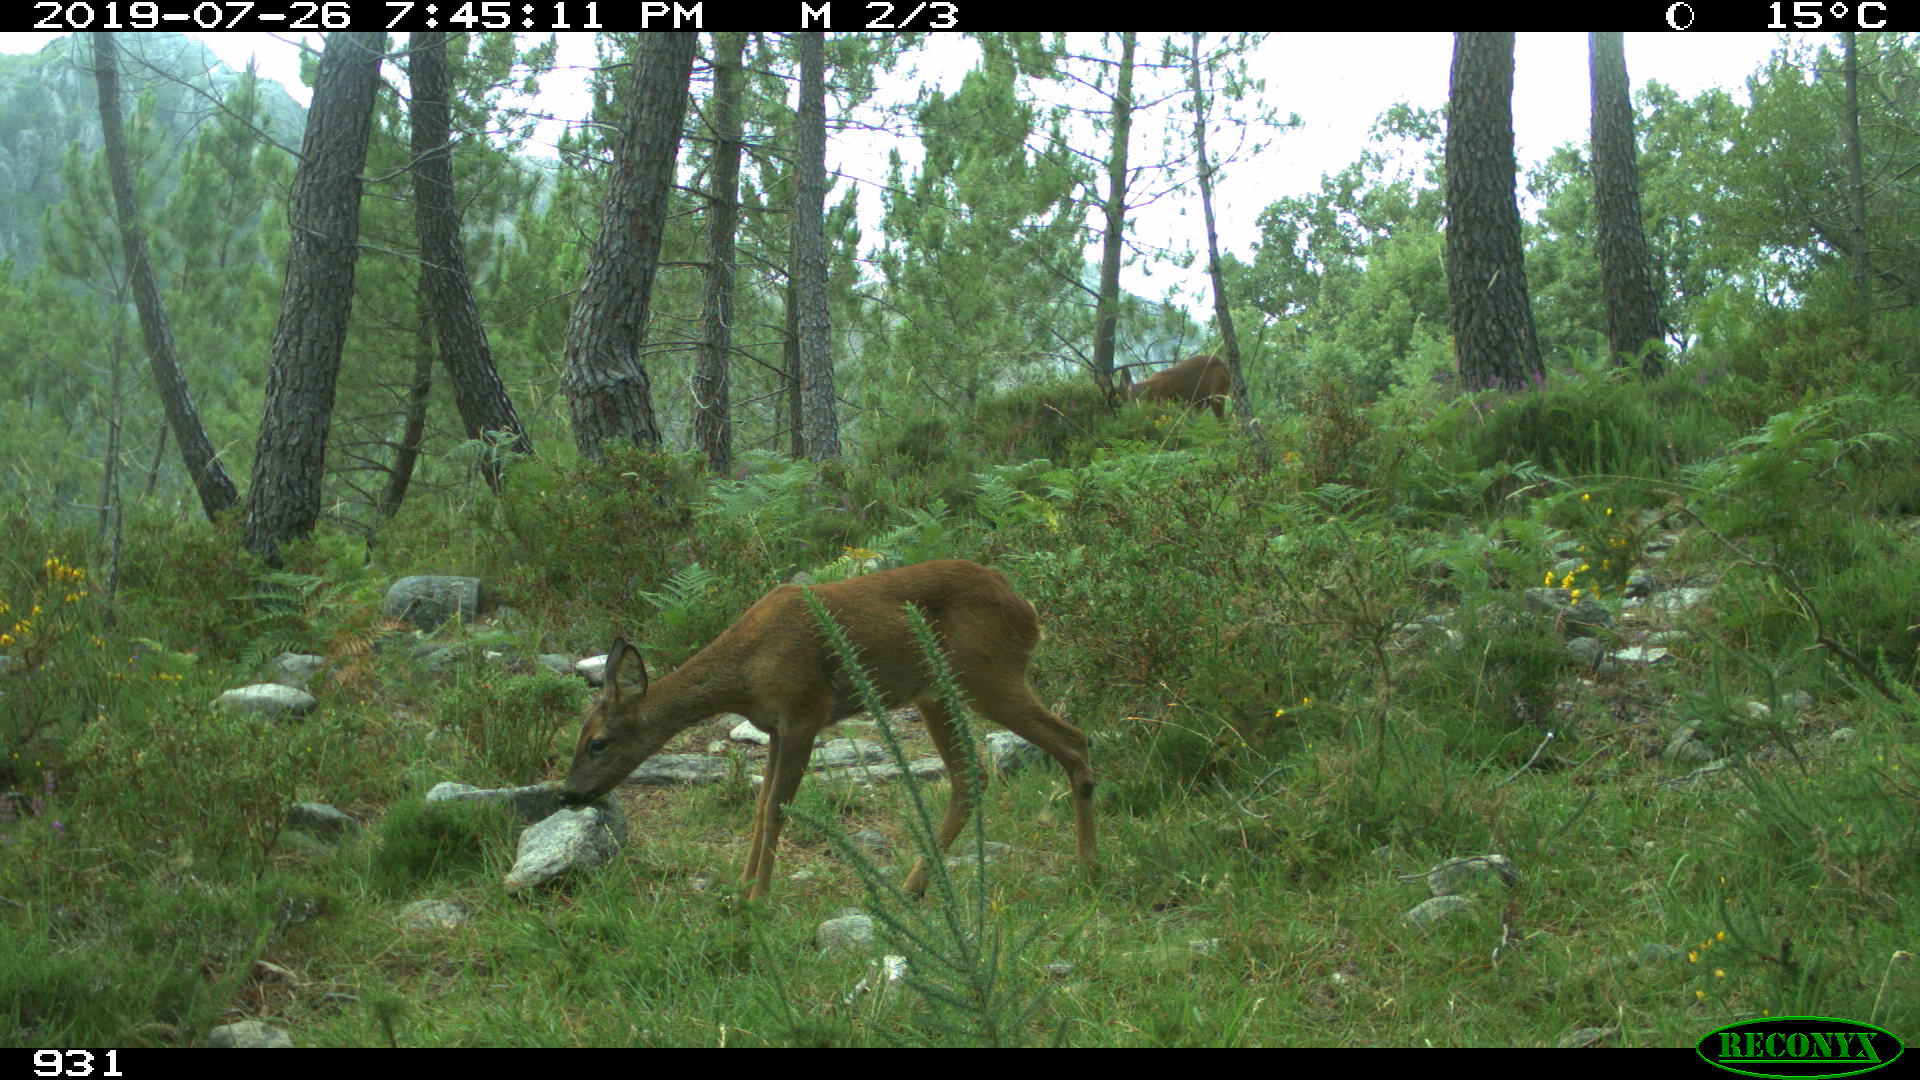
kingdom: Animalia
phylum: Chordata
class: Mammalia
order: Artiodactyla
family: Cervidae
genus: Capreolus
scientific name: Capreolus capreolus
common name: Western roe deer
